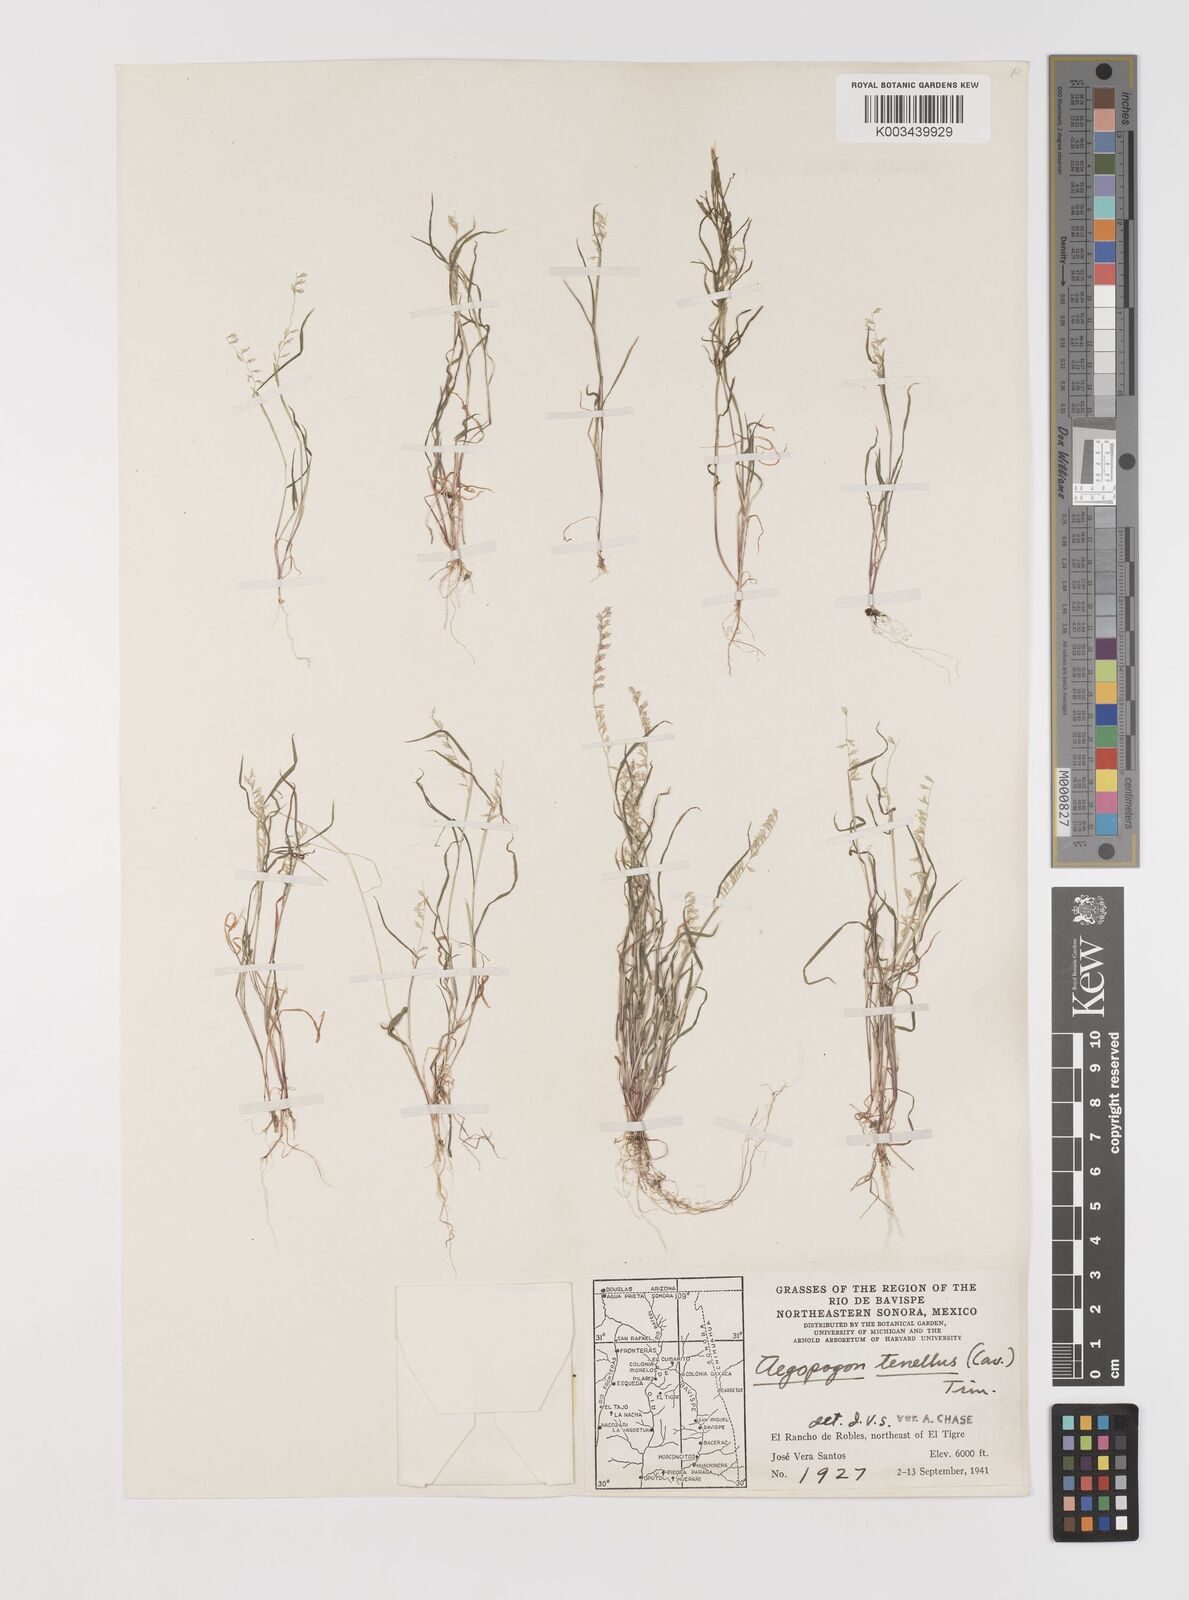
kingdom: Plantae
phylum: Tracheophyta
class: Liliopsida
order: Poales
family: Poaceae
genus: Muhlenbergia
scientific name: Muhlenbergia uniseta
